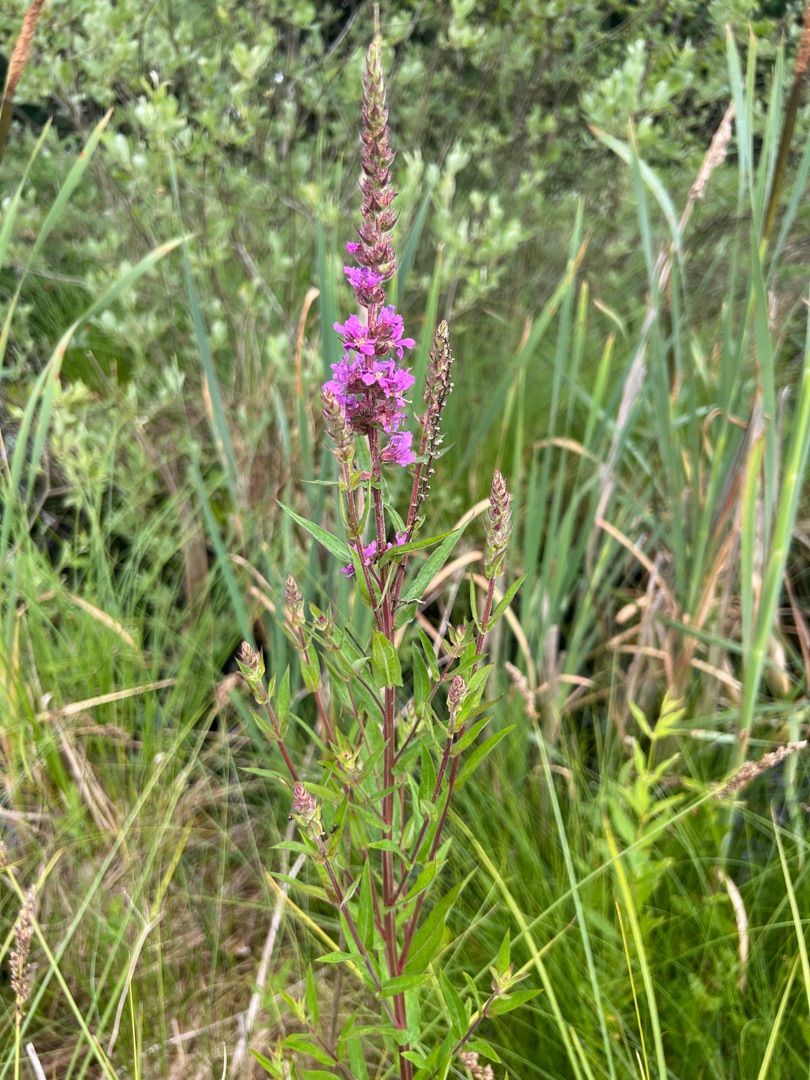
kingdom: Plantae
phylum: Tracheophyta
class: Magnoliopsida
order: Myrtales
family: Lythraceae
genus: Lythrum
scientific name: Lythrum salicaria
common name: Kattehale
